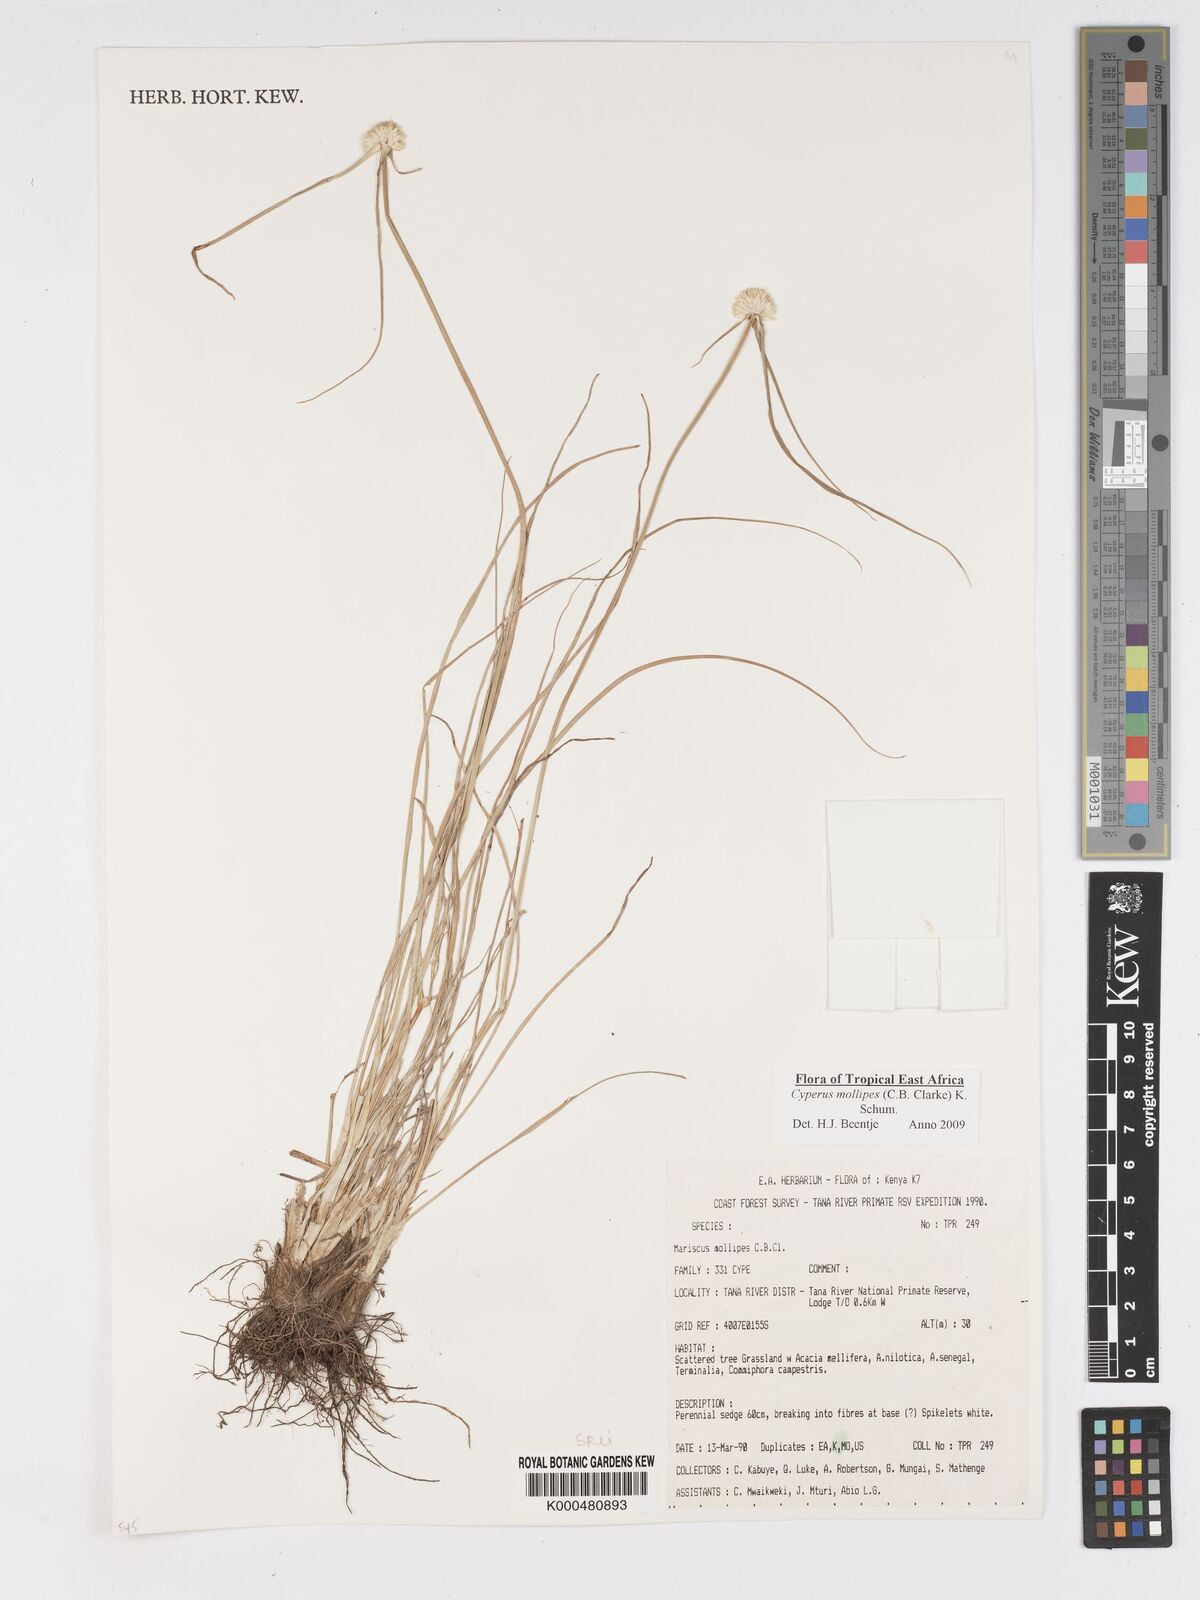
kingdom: Plantae
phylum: Tracheophyta
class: Liliopsida
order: Poales
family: Cyperaceae
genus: Cyperus
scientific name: Cyperus mollipes
